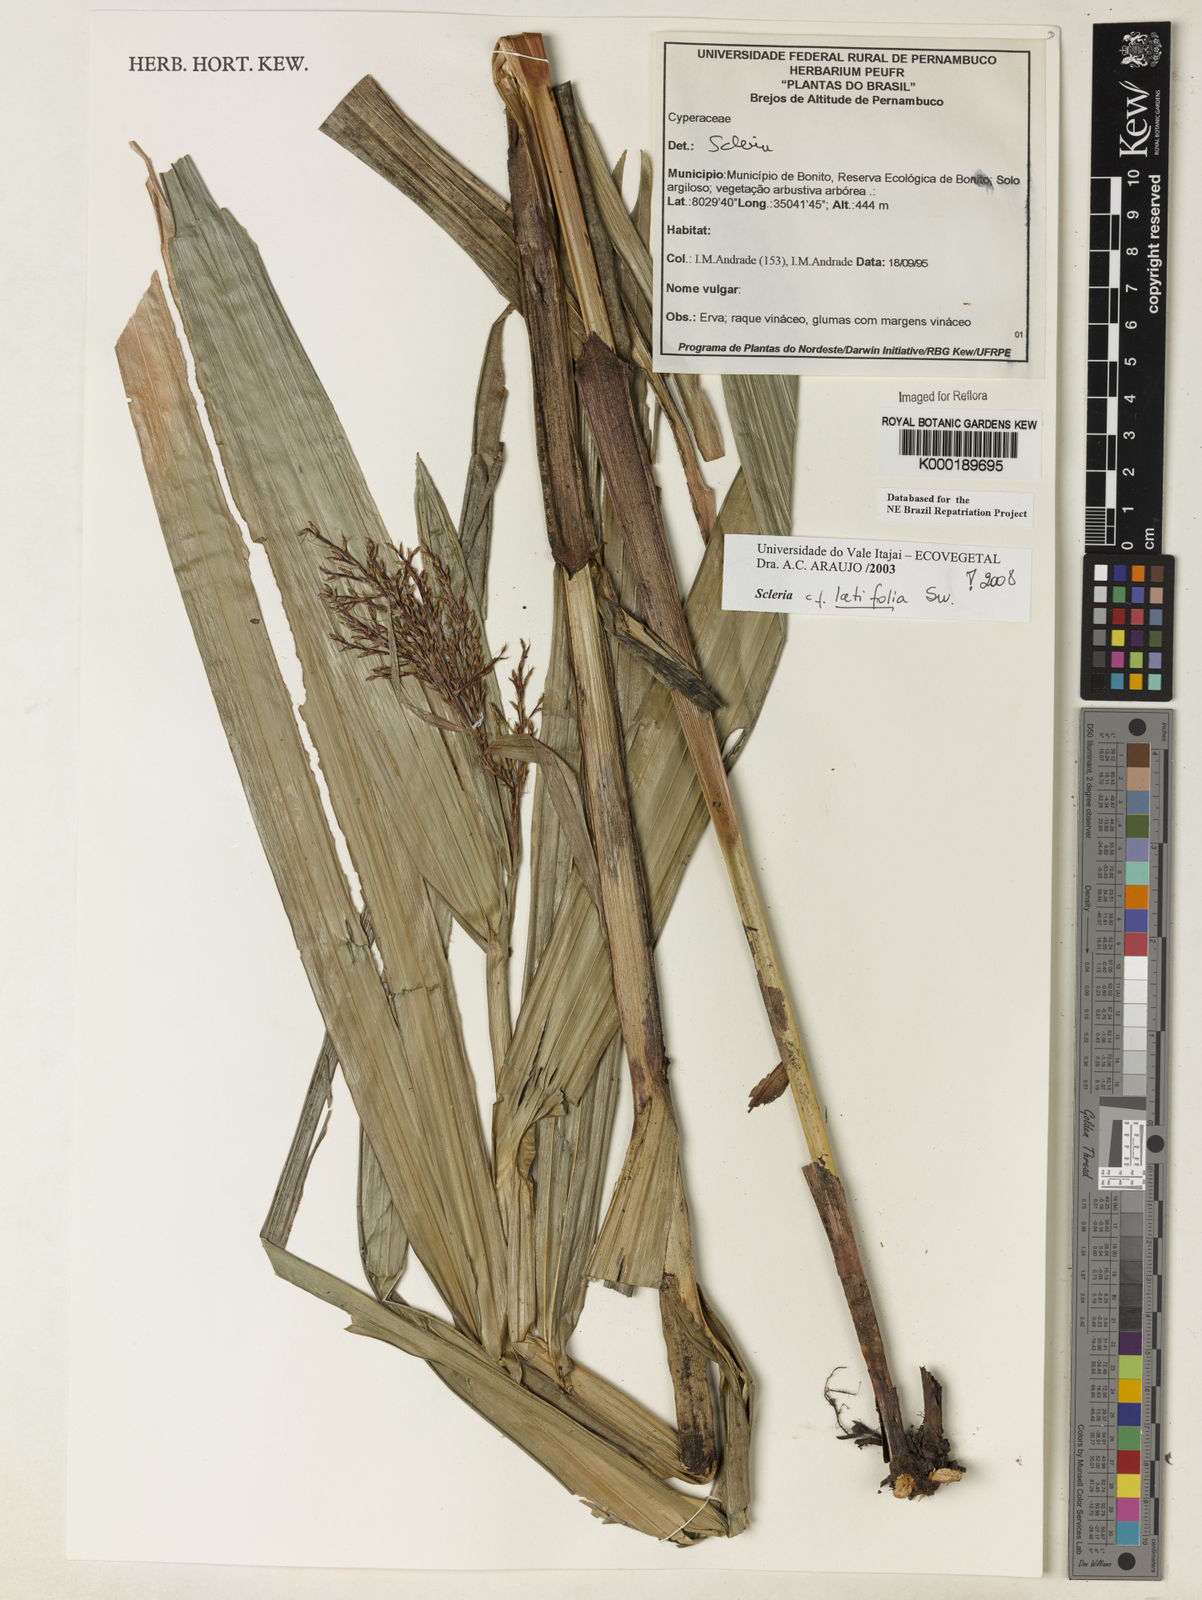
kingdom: Plantae
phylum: Tracheophyta
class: Liliopsida
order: Poales
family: Cyperaceae
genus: Scleria
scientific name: Scleria latifolia
